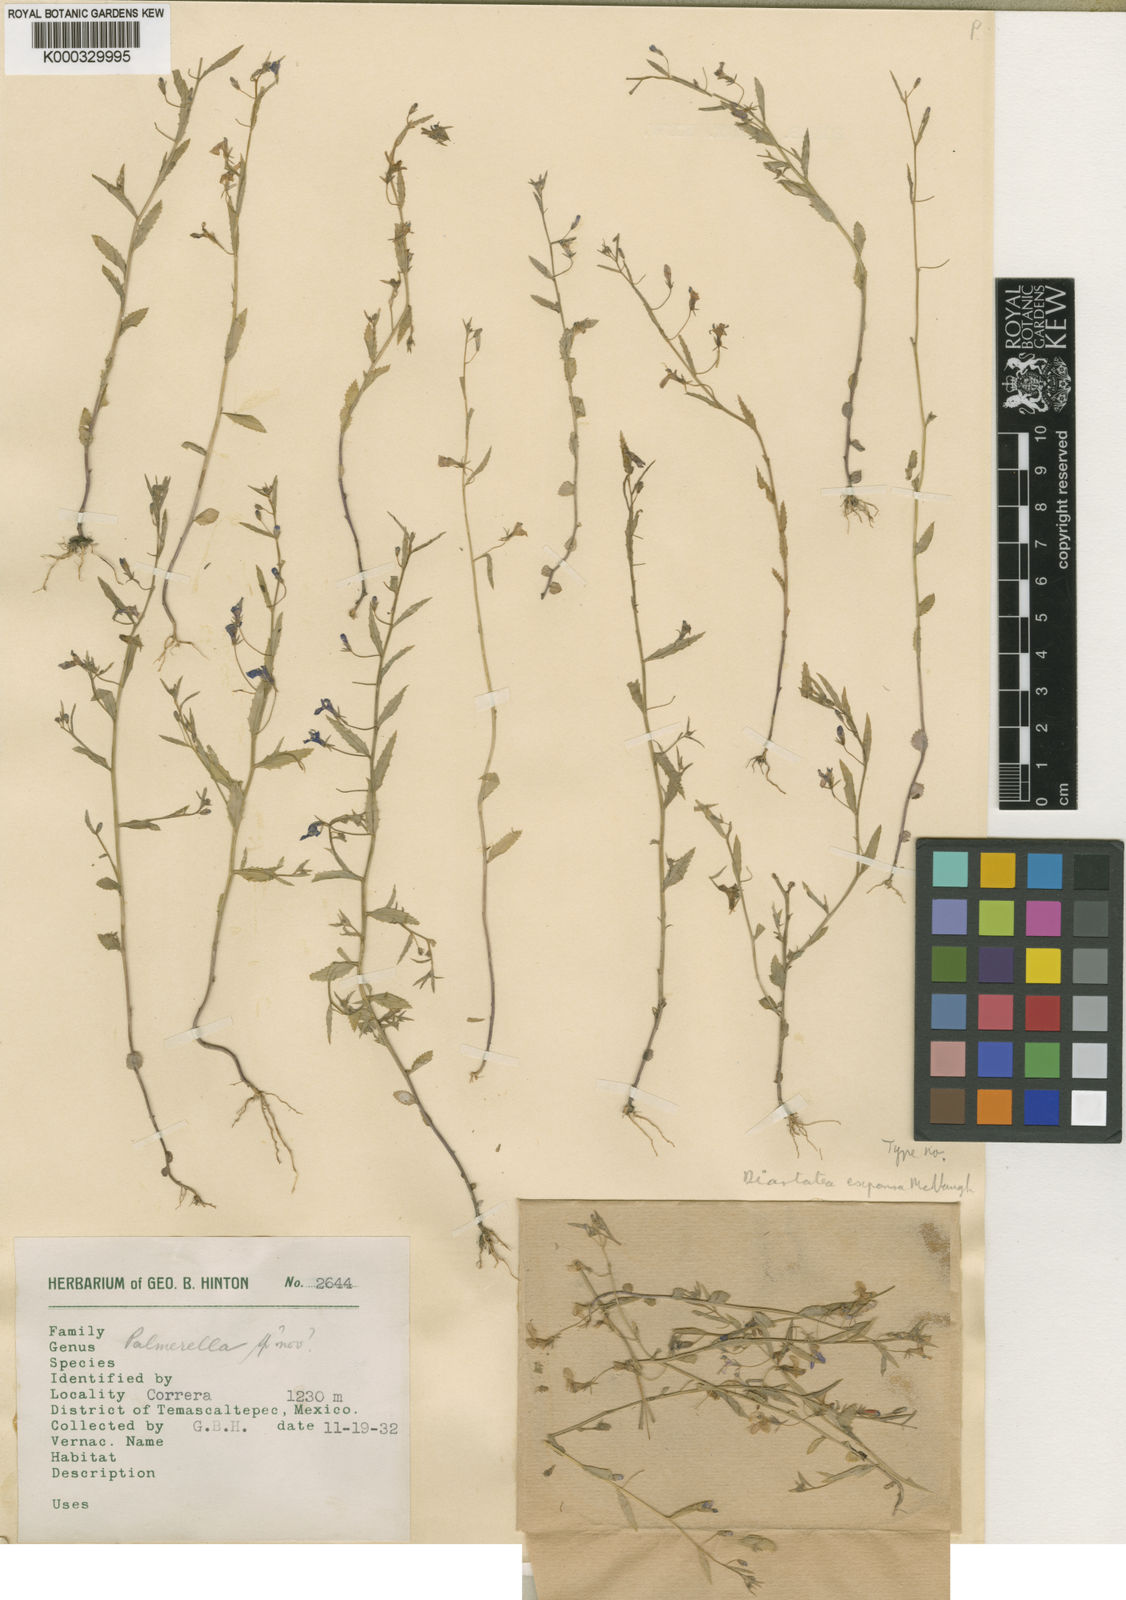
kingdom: Plantae
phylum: Tracheophyta
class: Magnoliopsida
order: Asterales
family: Campanulaceae
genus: Diastatea
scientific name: Diastatea expansa
